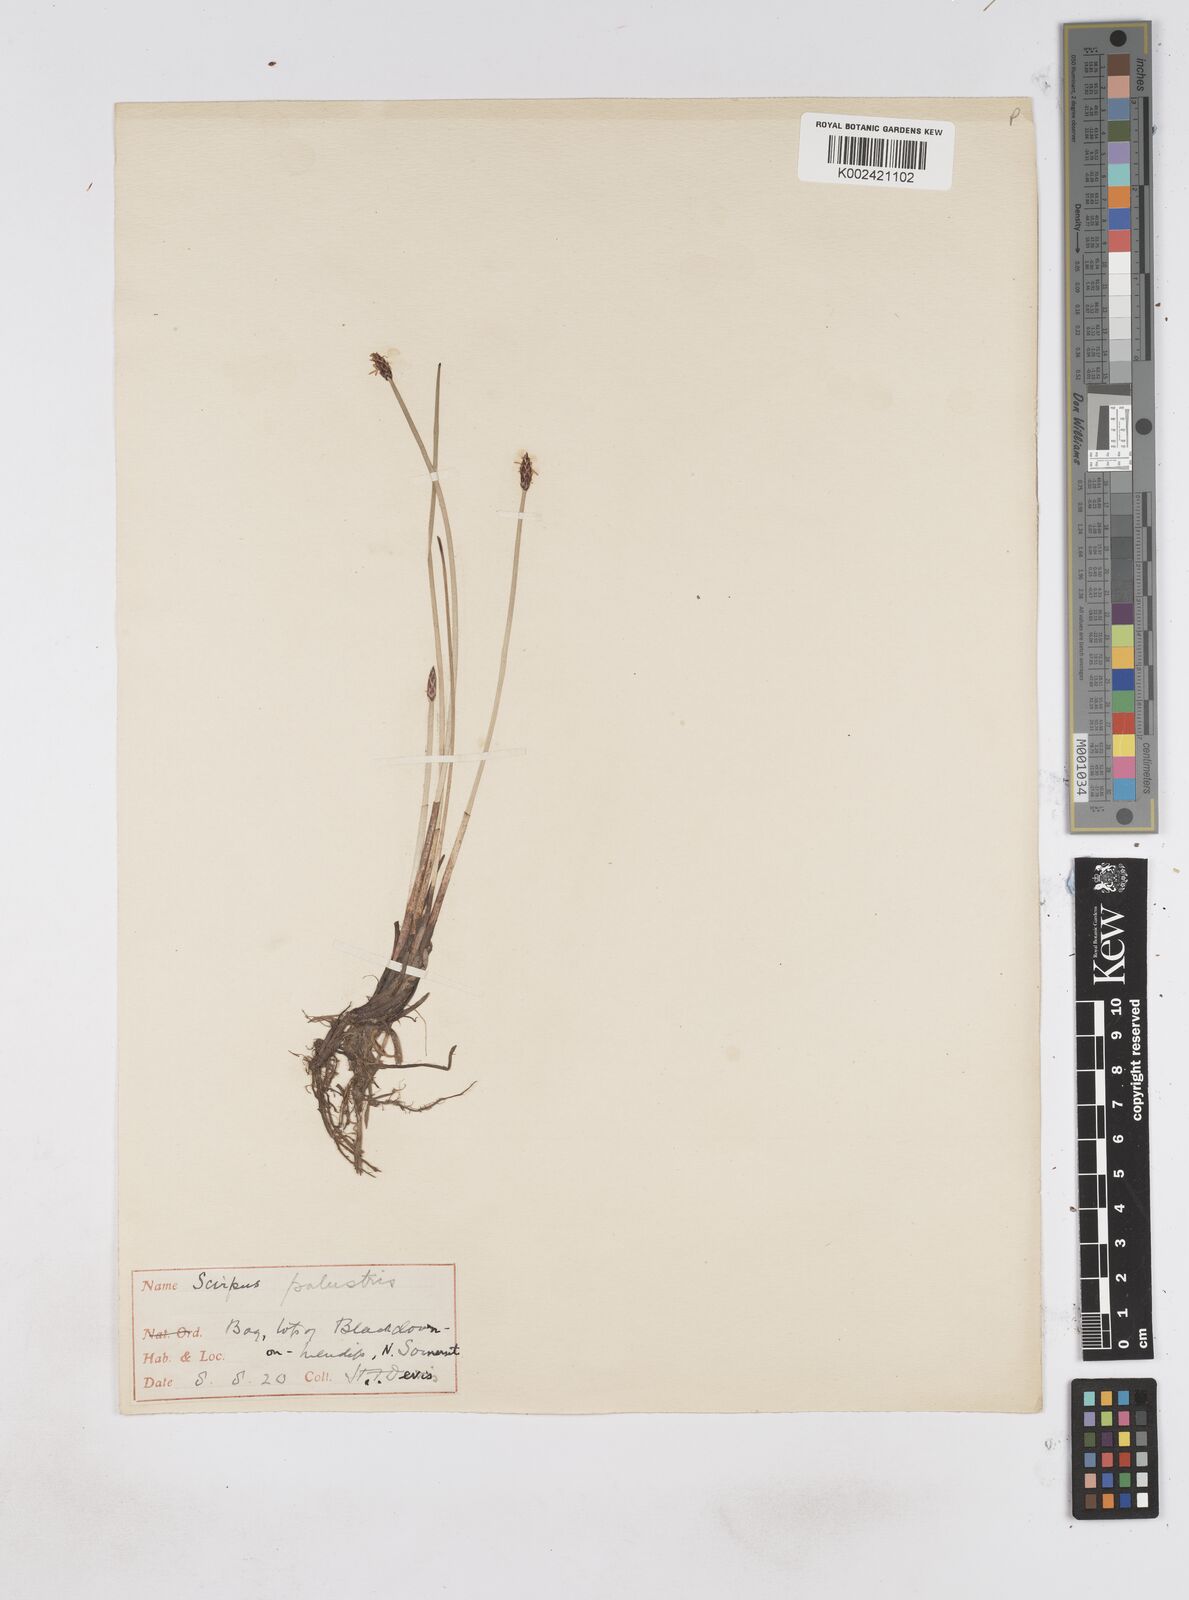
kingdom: Plantae
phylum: Tracheophyta
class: Liliopsida
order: Poales
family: Cyperaceae
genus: Eleocharis
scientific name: Eleocharis palustris
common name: Common spike-rush
